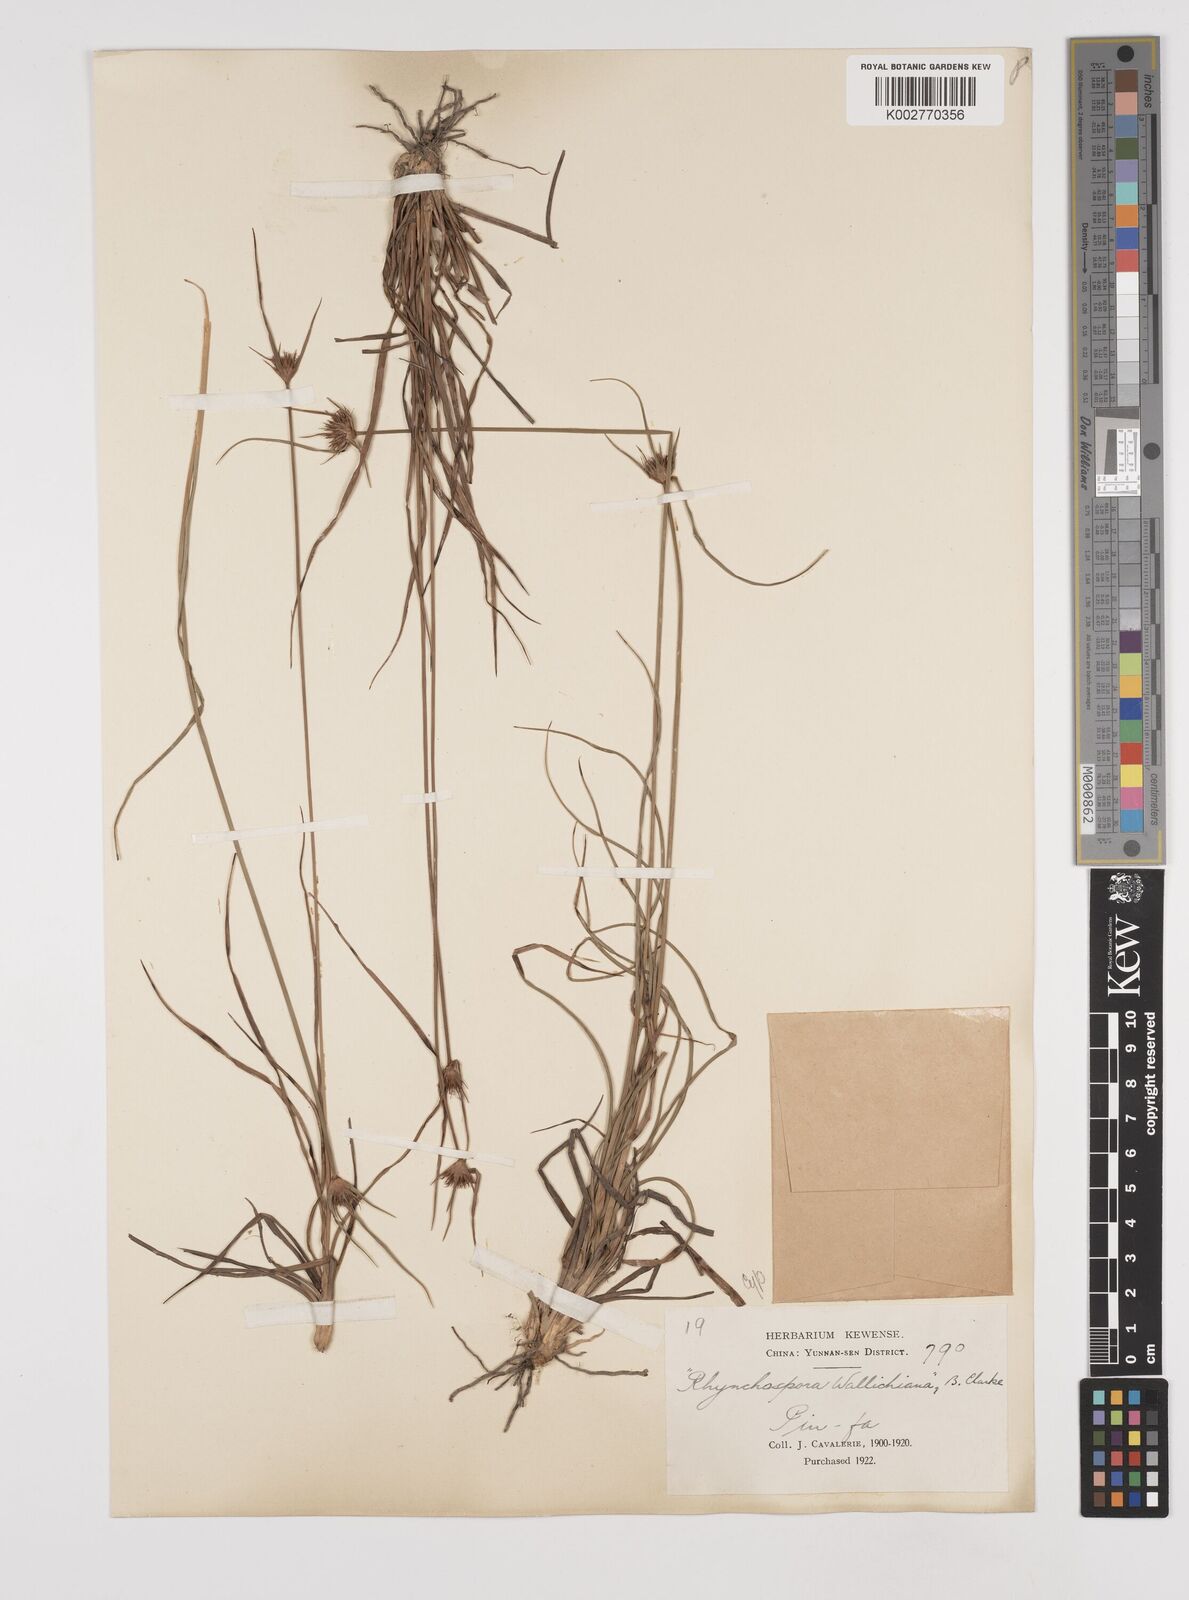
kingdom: Plantae
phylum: Tracheophyta
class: Liliopsida
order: Poales
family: Cyperaceae
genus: Rhynchospora
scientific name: Rhynchospora rubra
